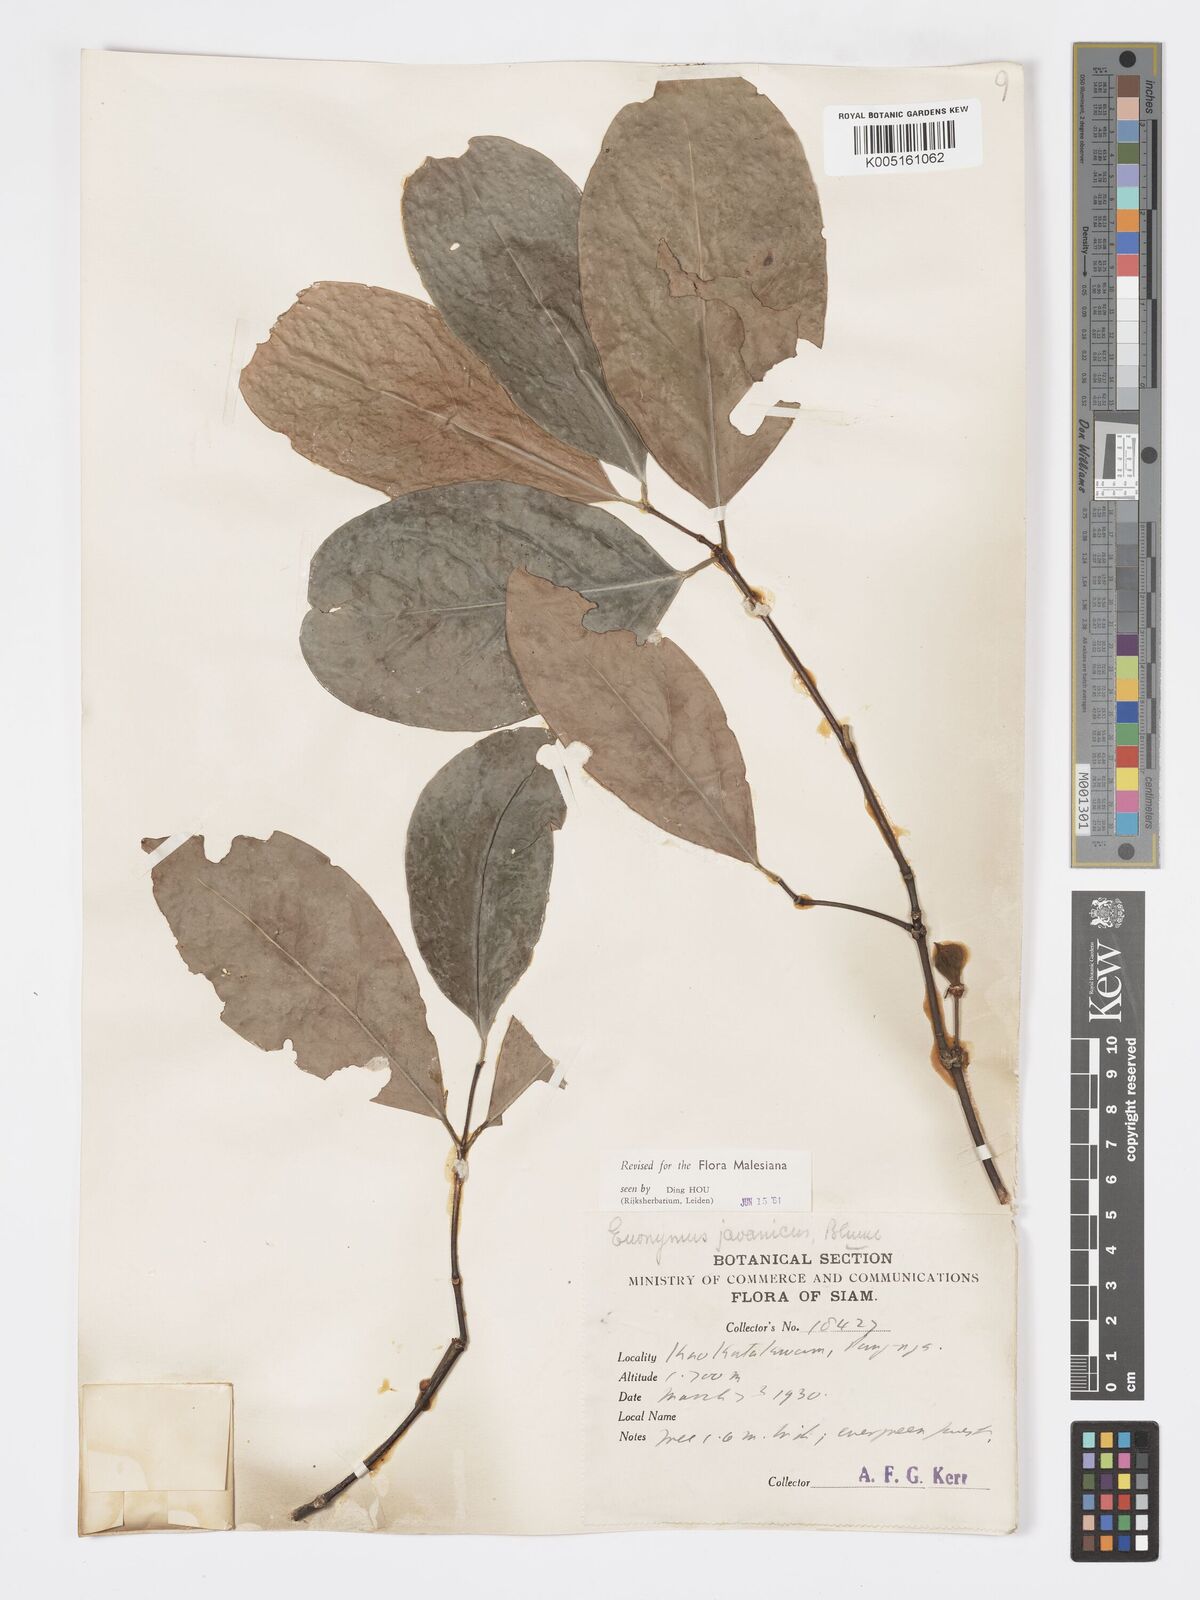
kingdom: Plantae
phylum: Tracheophyta
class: Magnoliopsida
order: Celastrales
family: Celastraceae
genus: Euonymus
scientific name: Euonymus indicus
